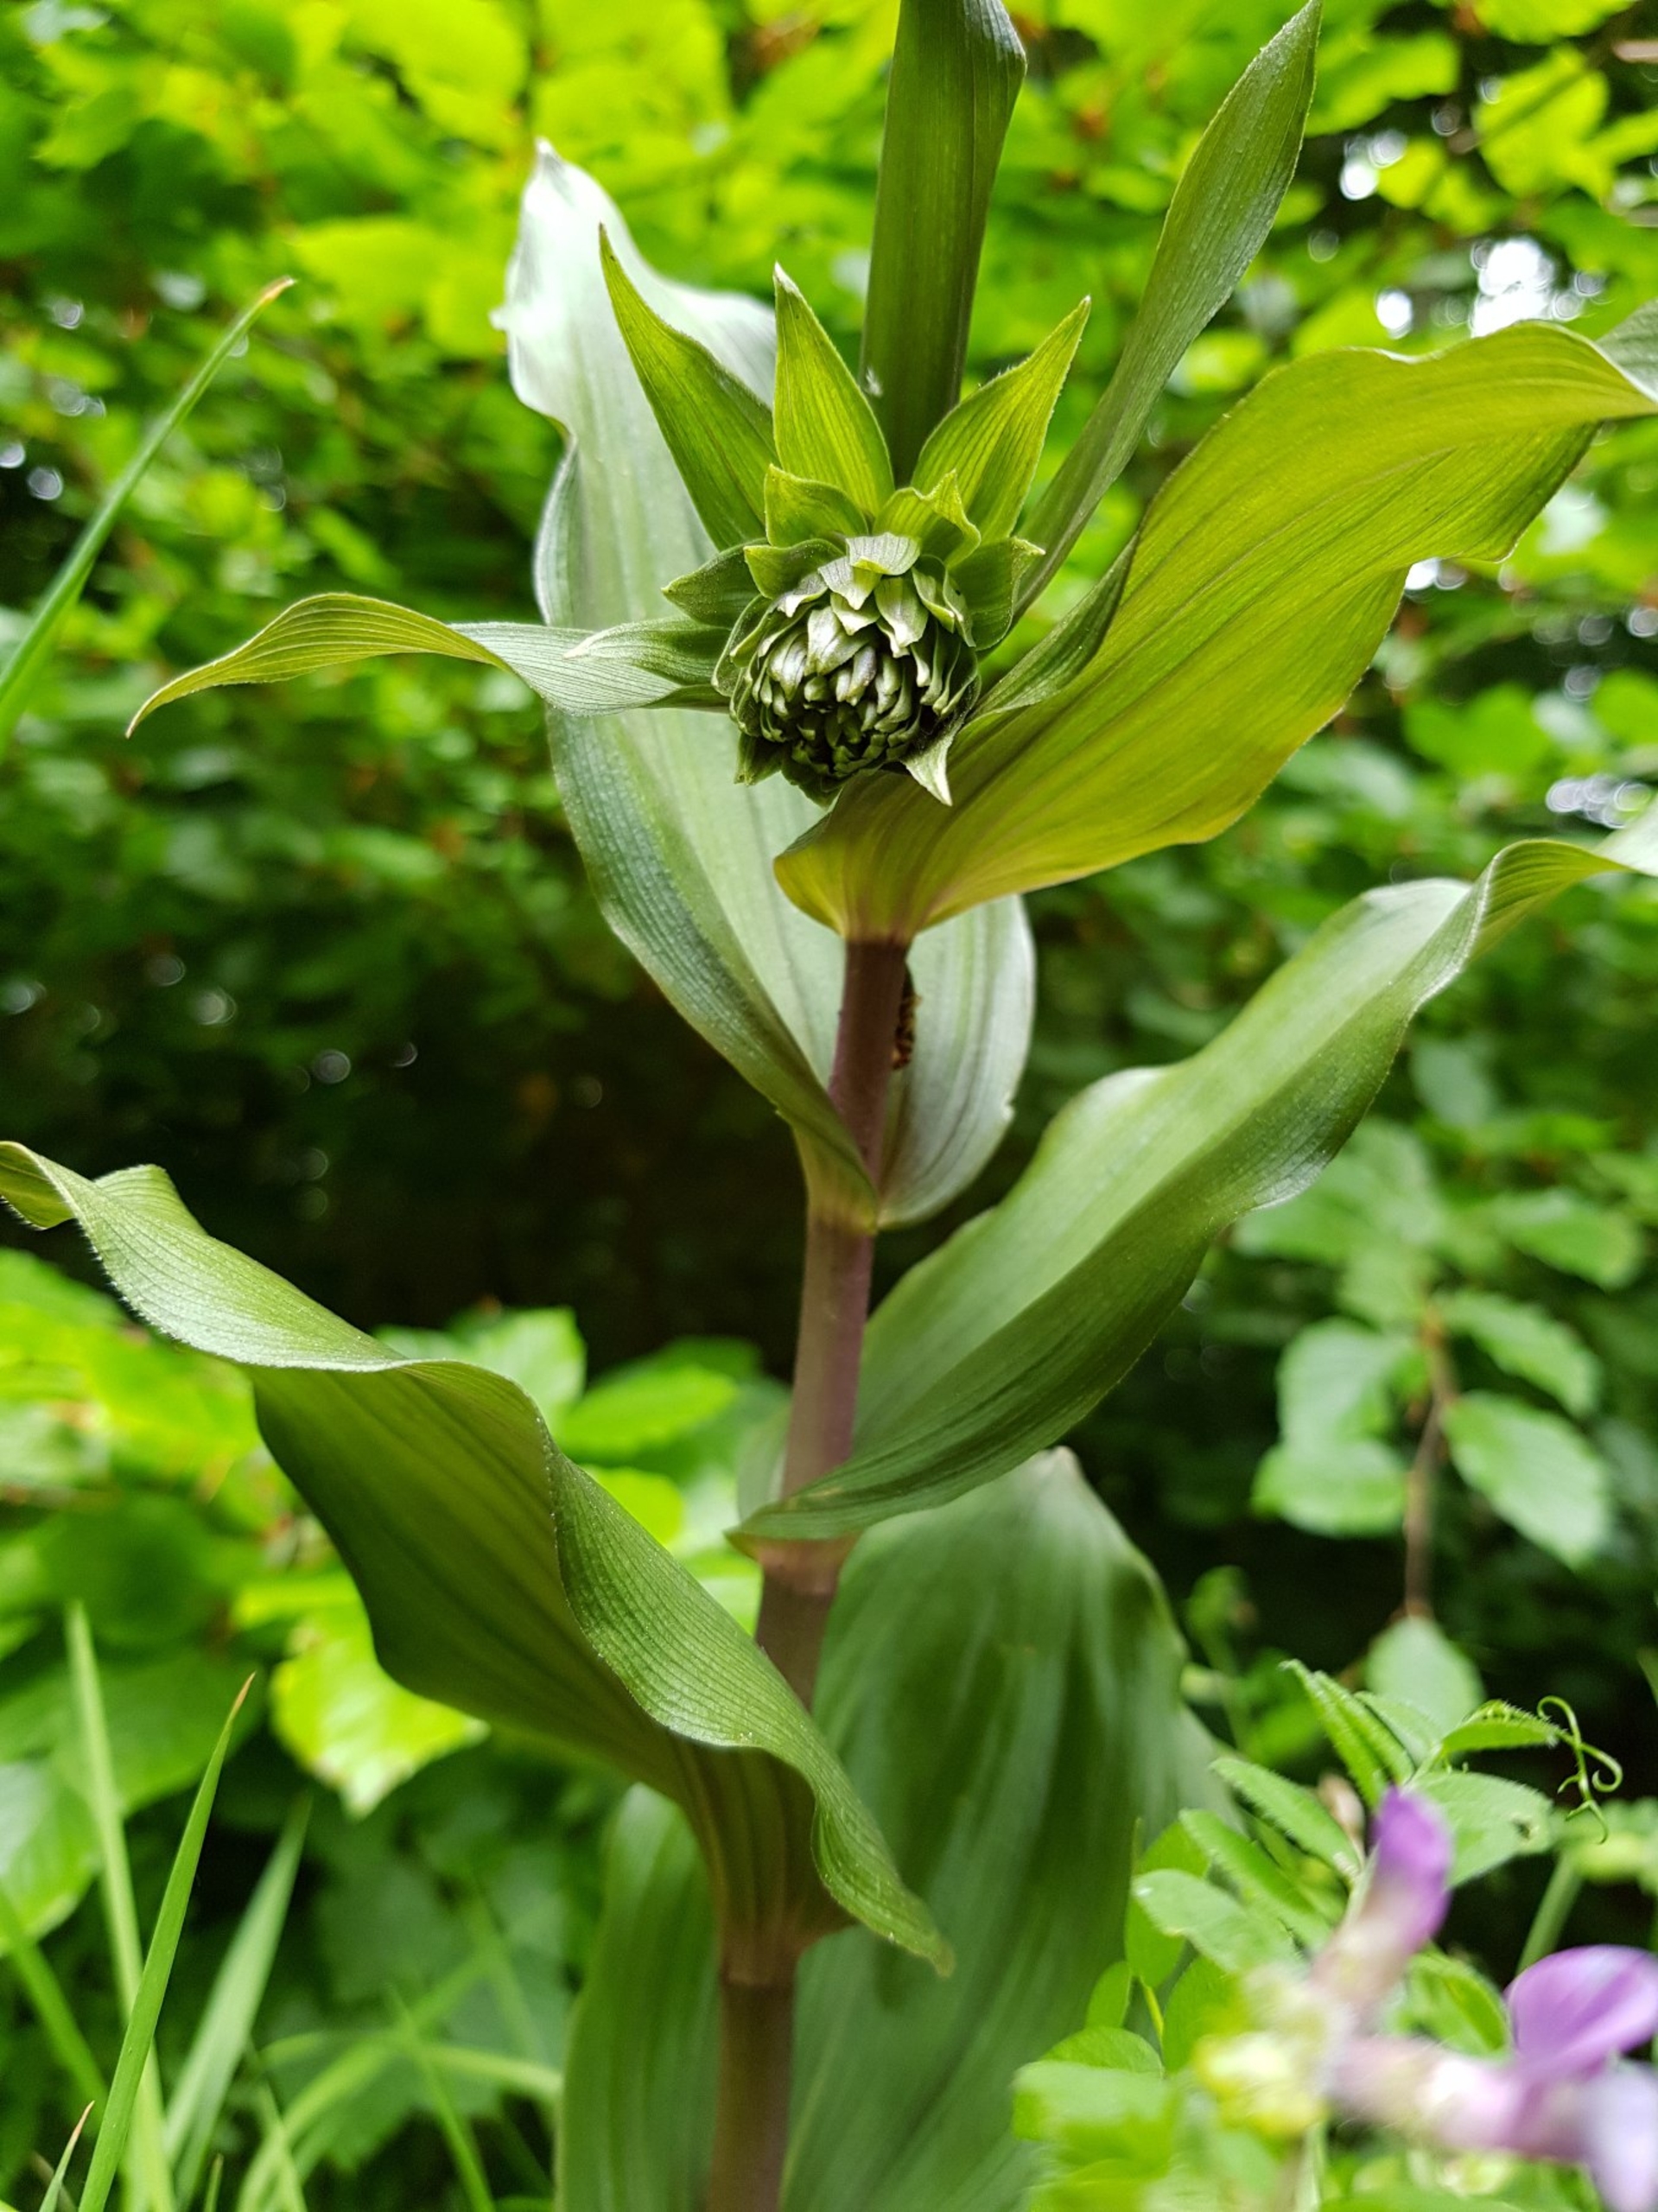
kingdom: Plantae
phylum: Tracheophyta
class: Liliopsida
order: Asparagales
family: Orchidaceae
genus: Epipactis
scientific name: Epipactis
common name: Hullæbeslægten
